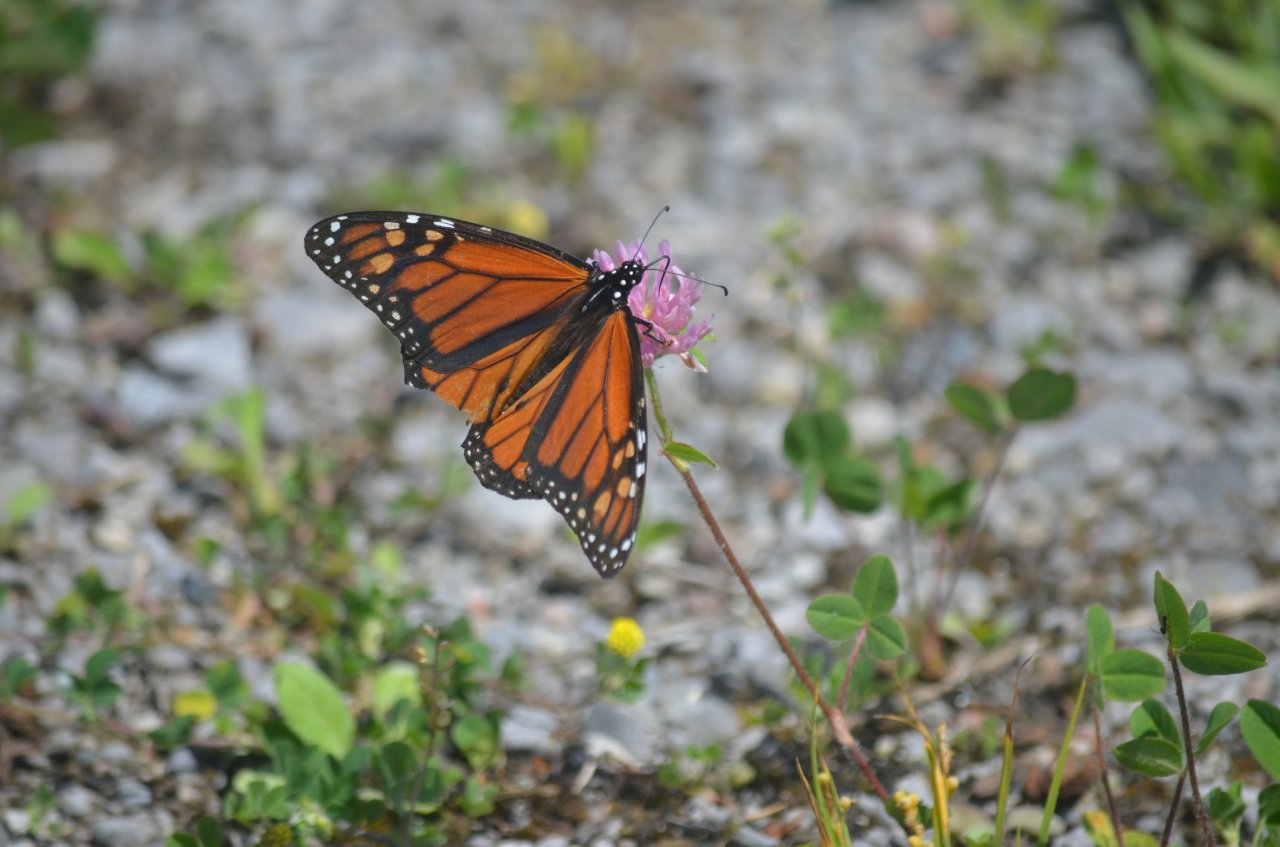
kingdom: Animalia
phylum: Arthropoda
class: Insecta
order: Lepidoptera
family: Nymphalidae
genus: Danaus
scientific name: Danaus plexippus
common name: Monarch
